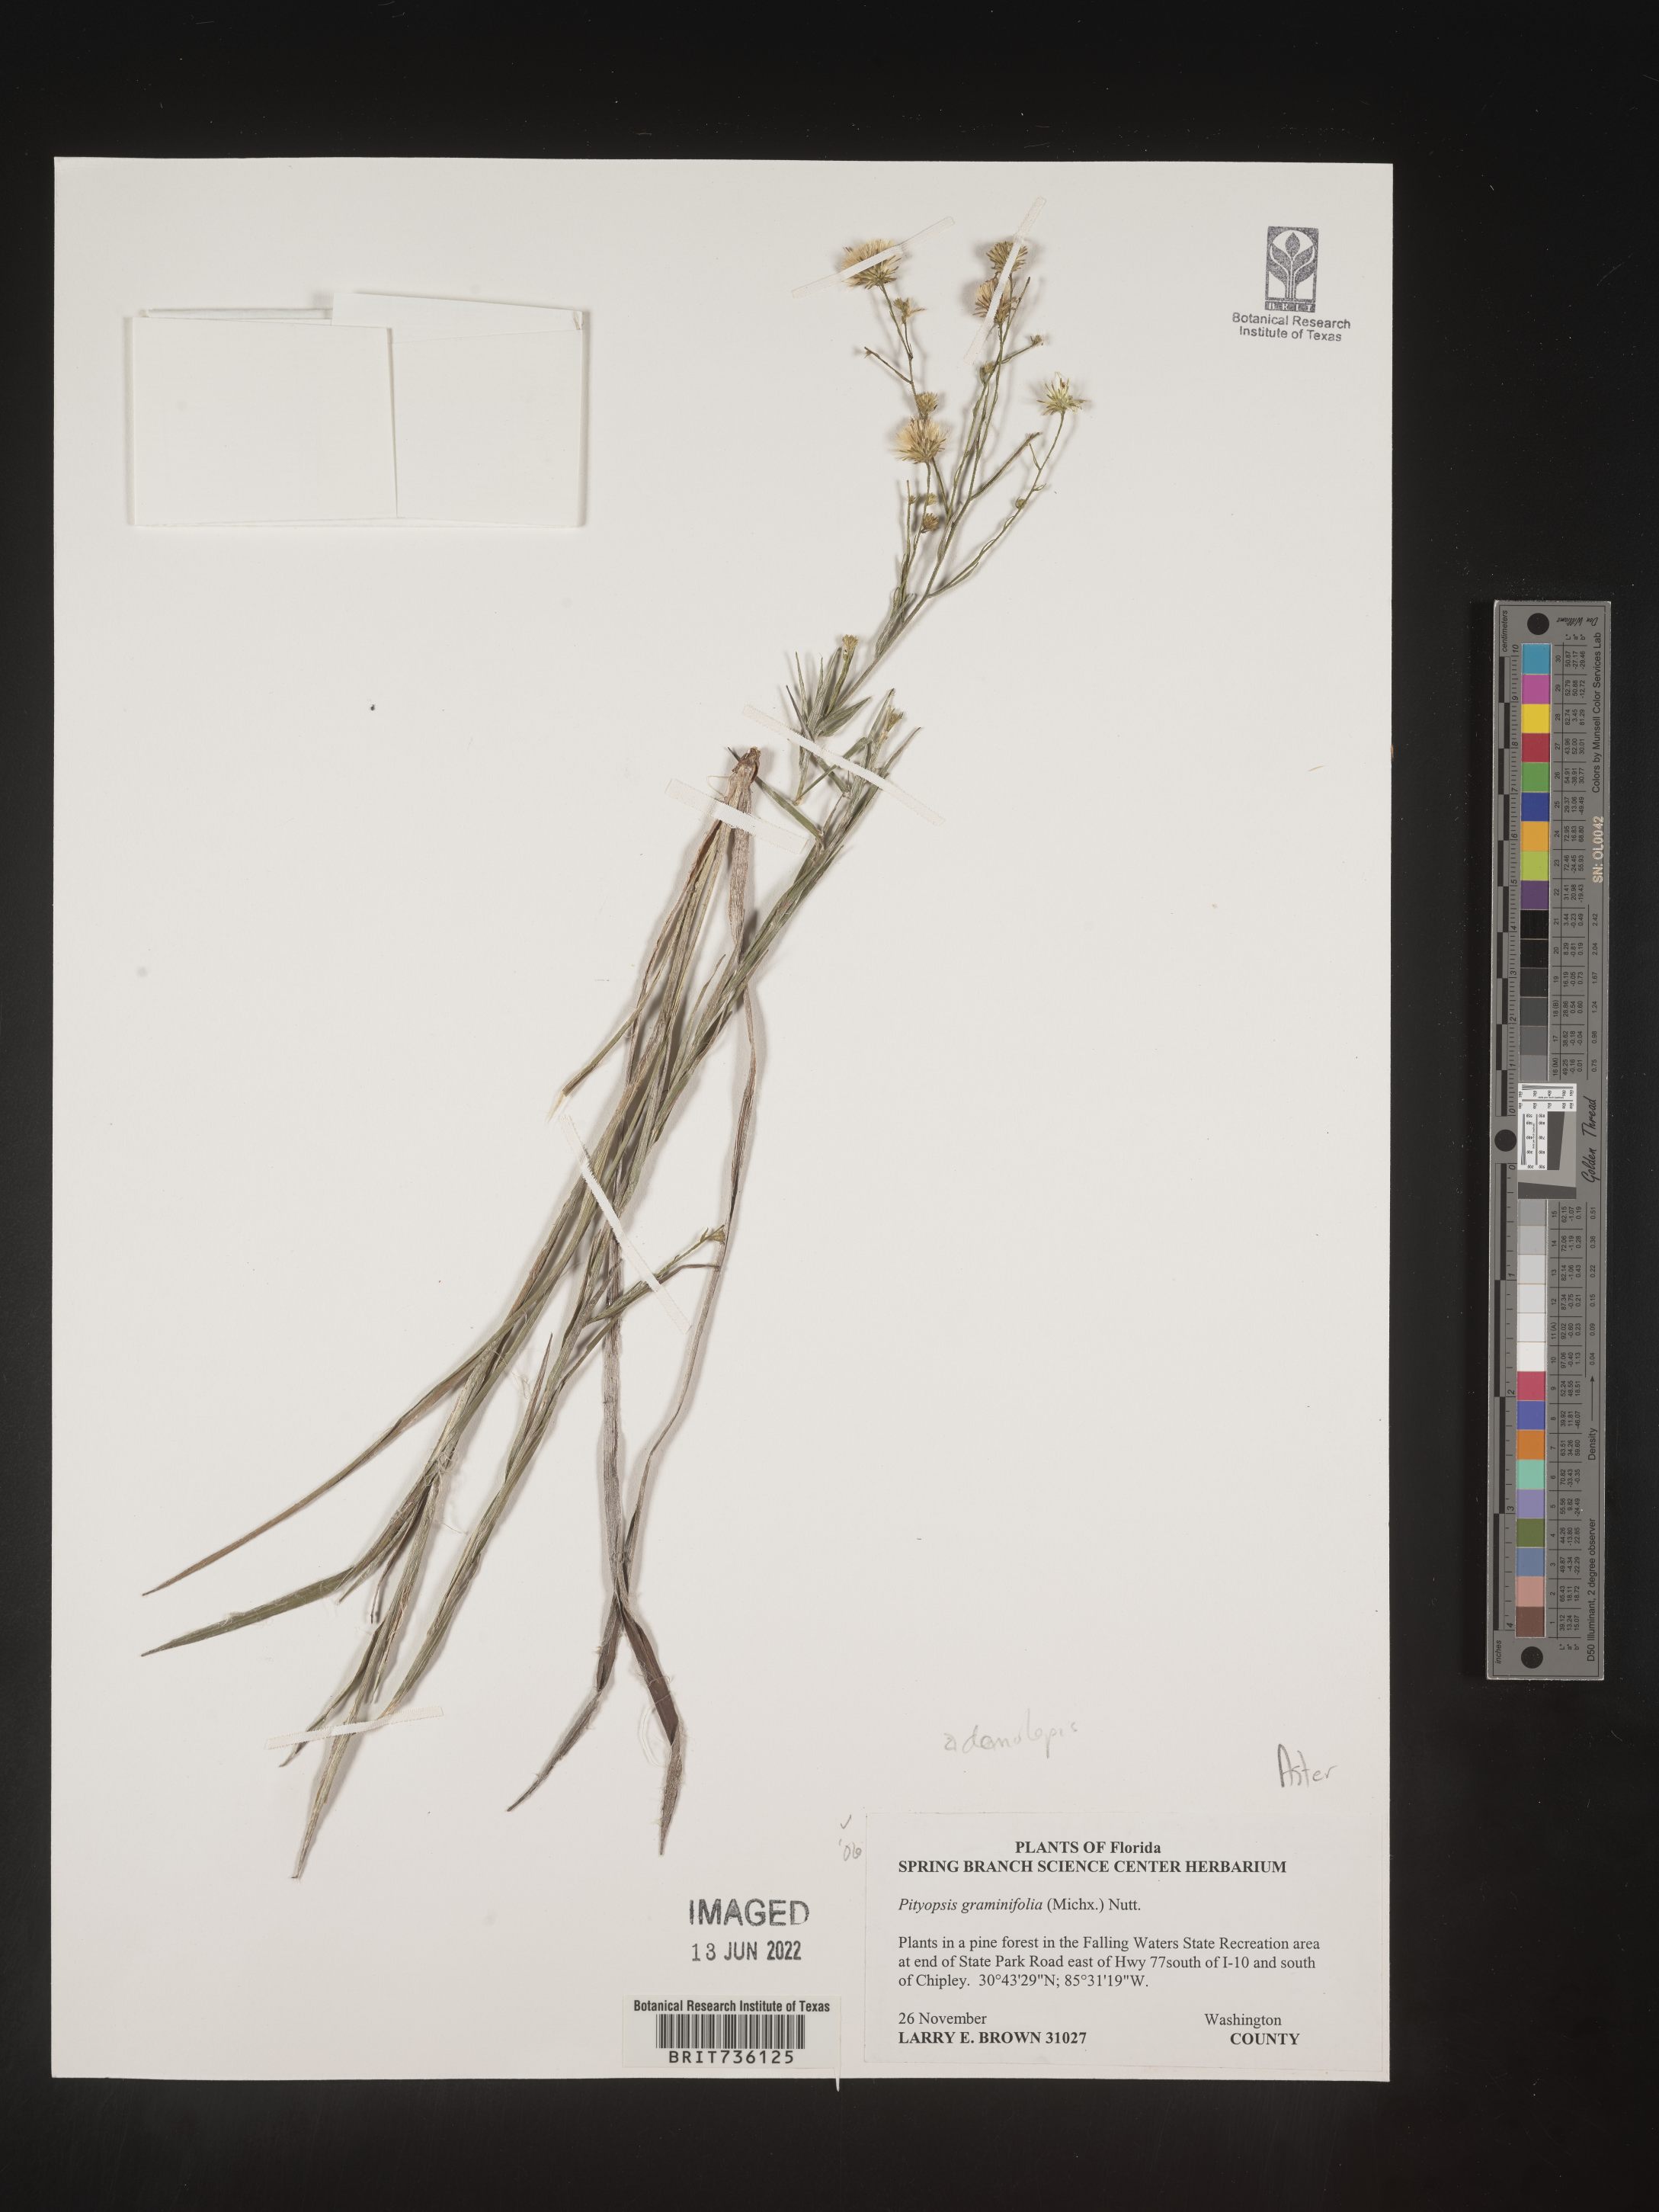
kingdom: Plantae
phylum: Tracheophyta
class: Magnoliopsida
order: Asterales
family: Asteraceae
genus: Pityopsis
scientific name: Pityopsis aspera
